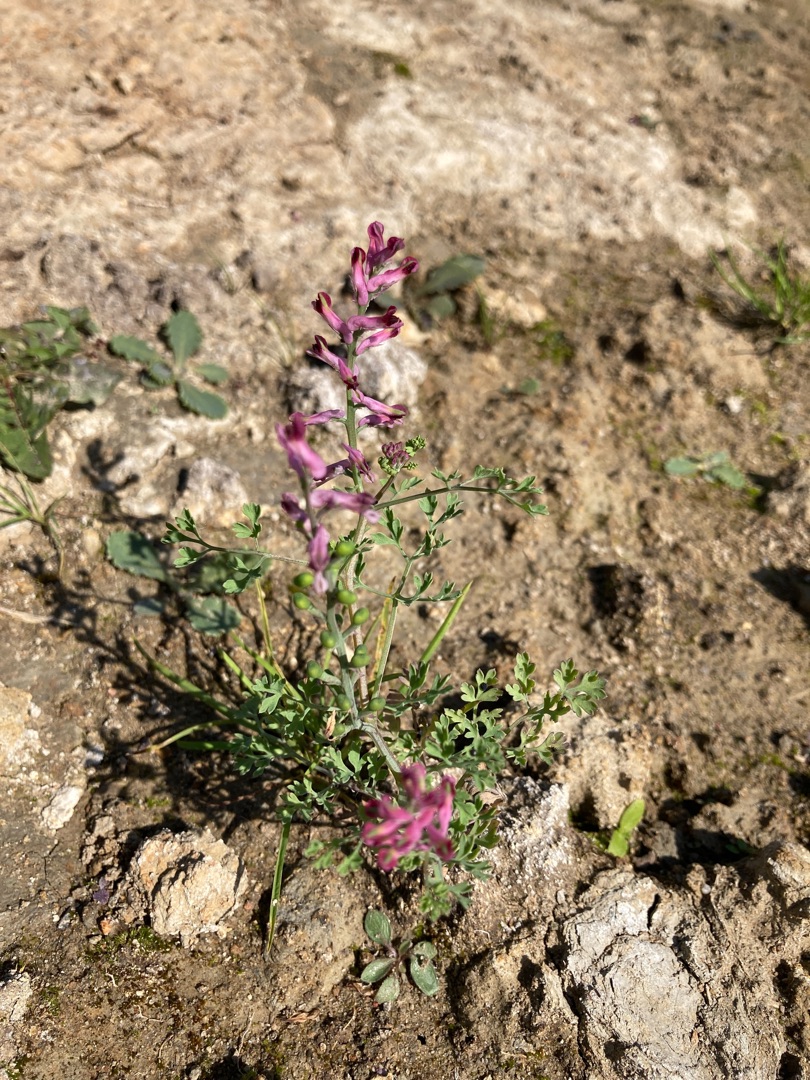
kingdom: Plantae
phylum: Tracheophyta
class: Magnoliopsida
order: Ranunculales
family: Papaveraceae
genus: Fumaria
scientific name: Fumaria officinalis
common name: Læge-jordrøg
